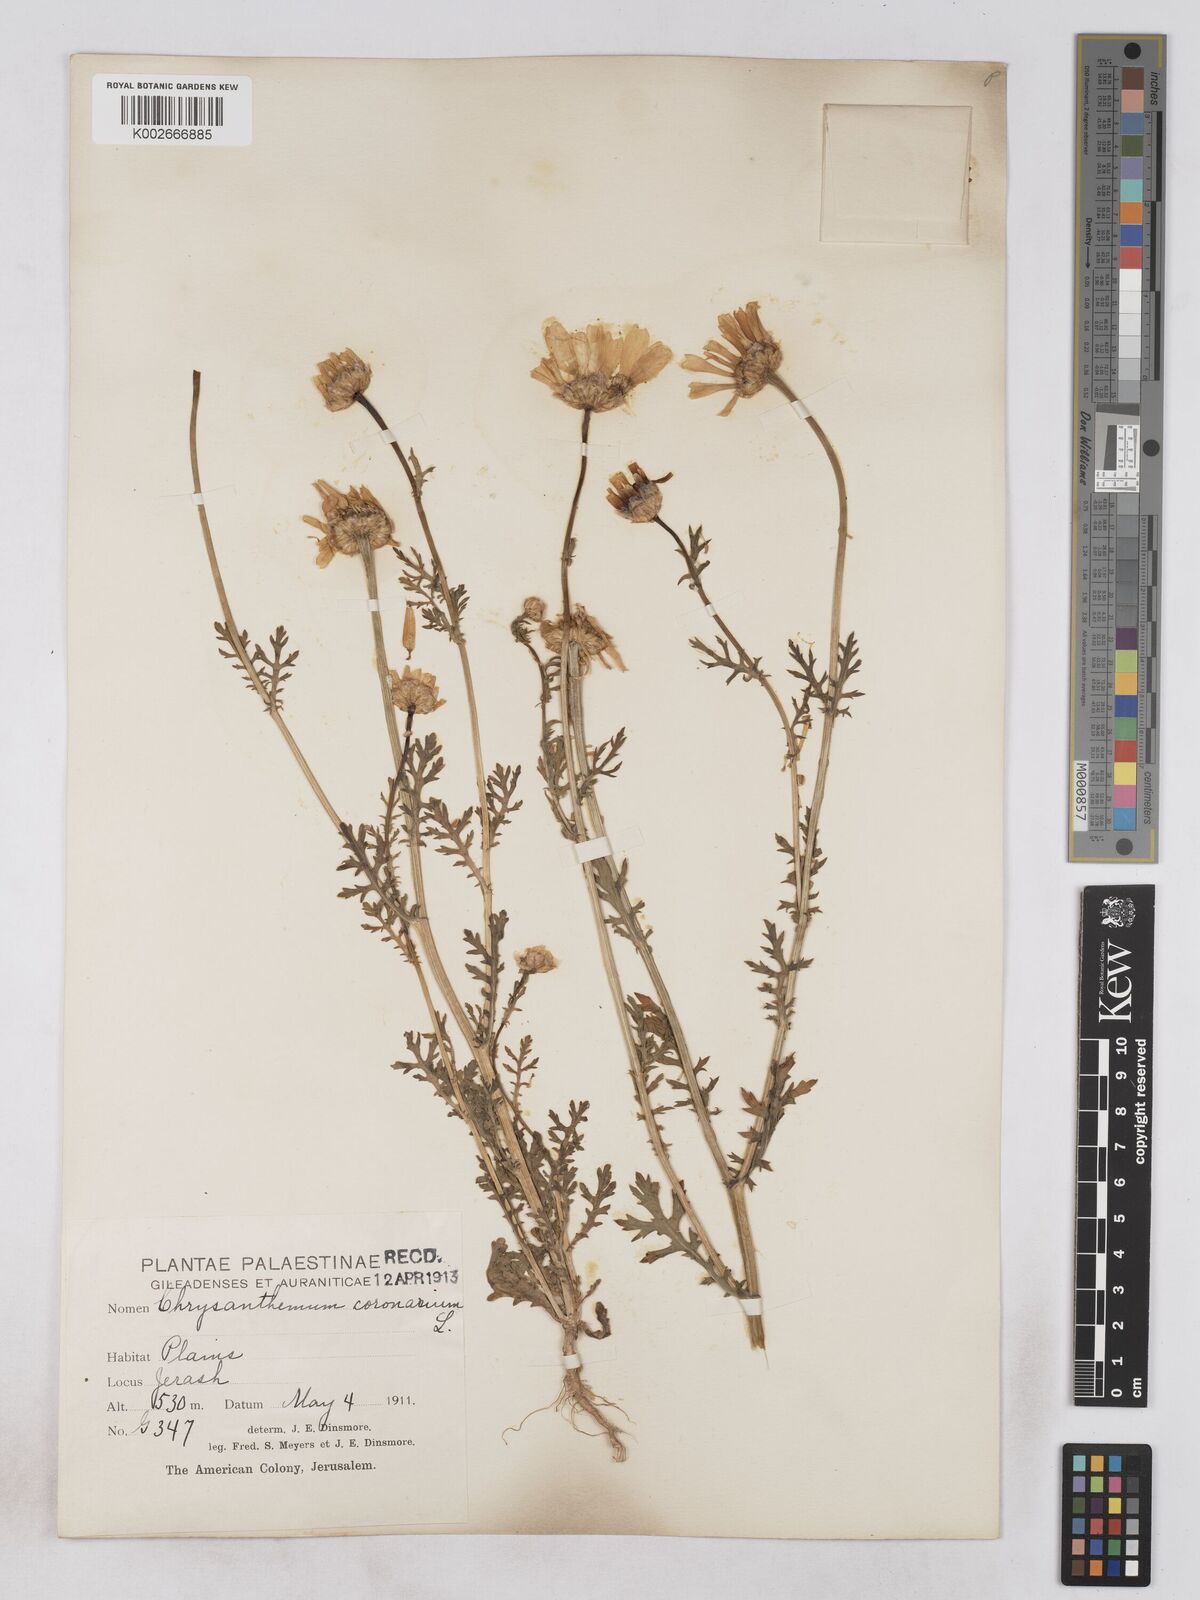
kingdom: Plantae
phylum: Tracheophyta
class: Magnoliopsida
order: Asterales
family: Asteraceae
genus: Glebionis
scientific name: Glebionis coronaria
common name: Crowndaisy
